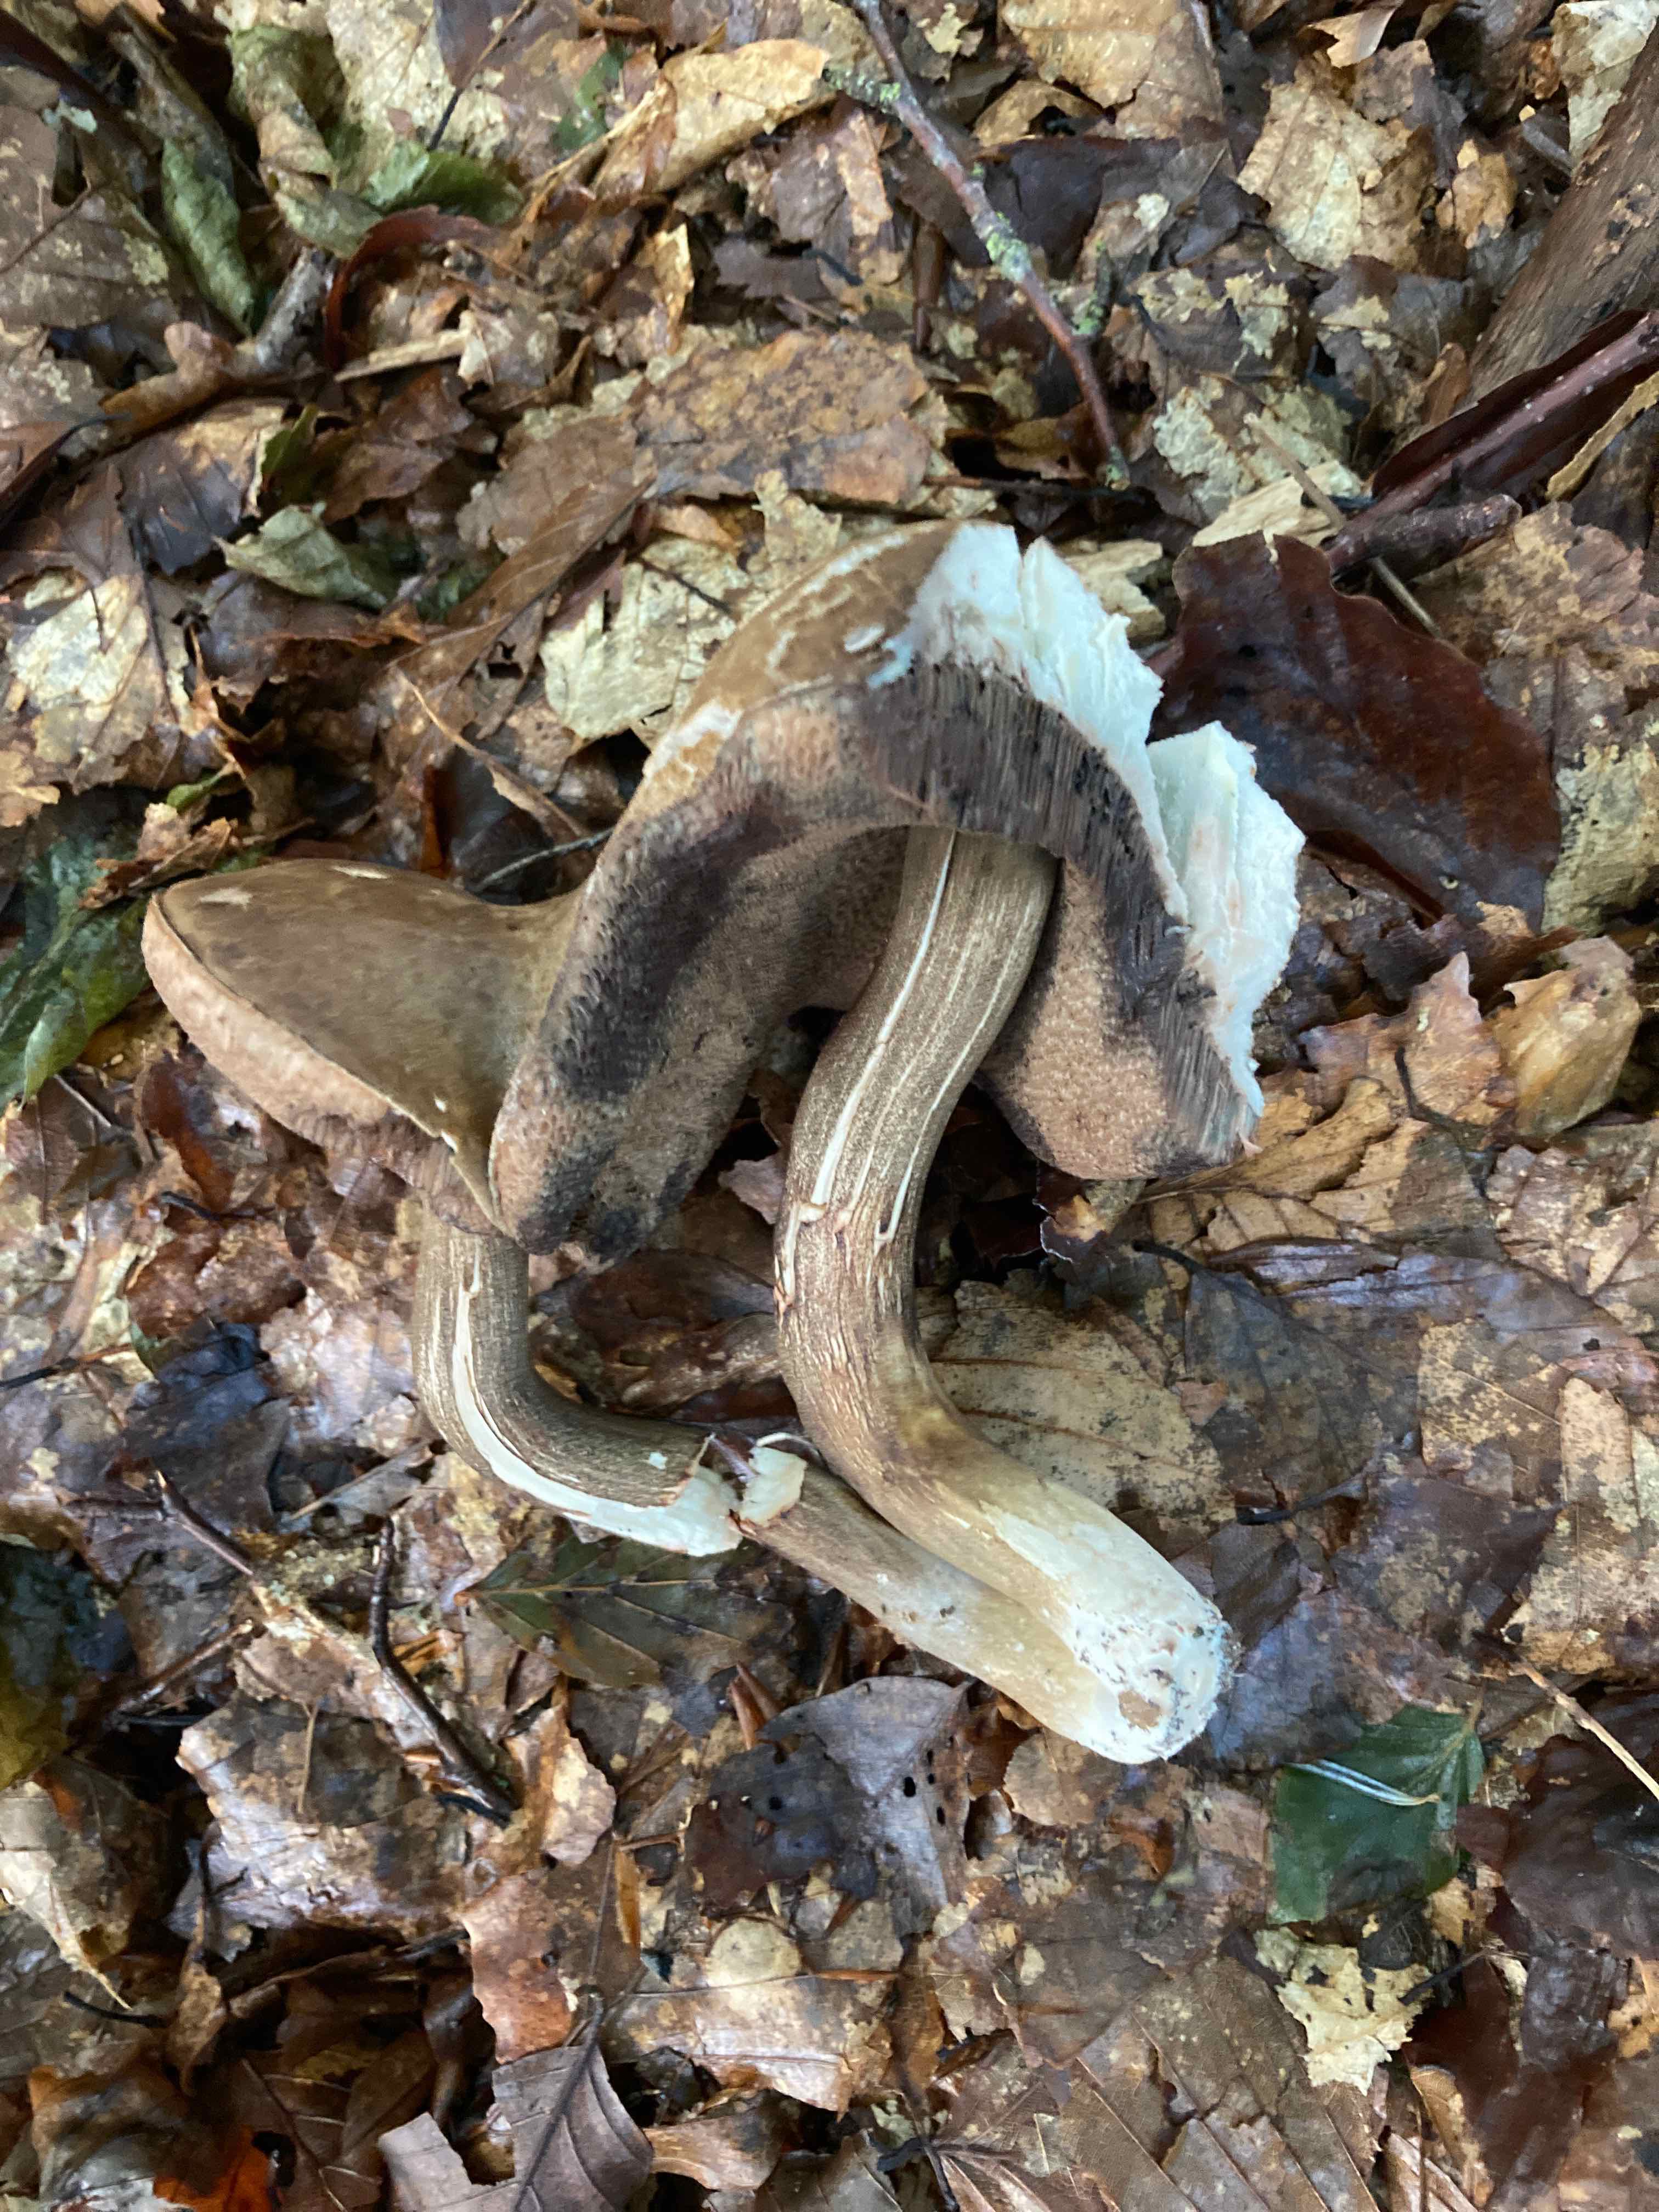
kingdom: Fungi
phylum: Basidiomycota
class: Agaricomycetes
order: Boletales
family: Boletaceae
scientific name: Boletaceae
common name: rørhatfamilien
